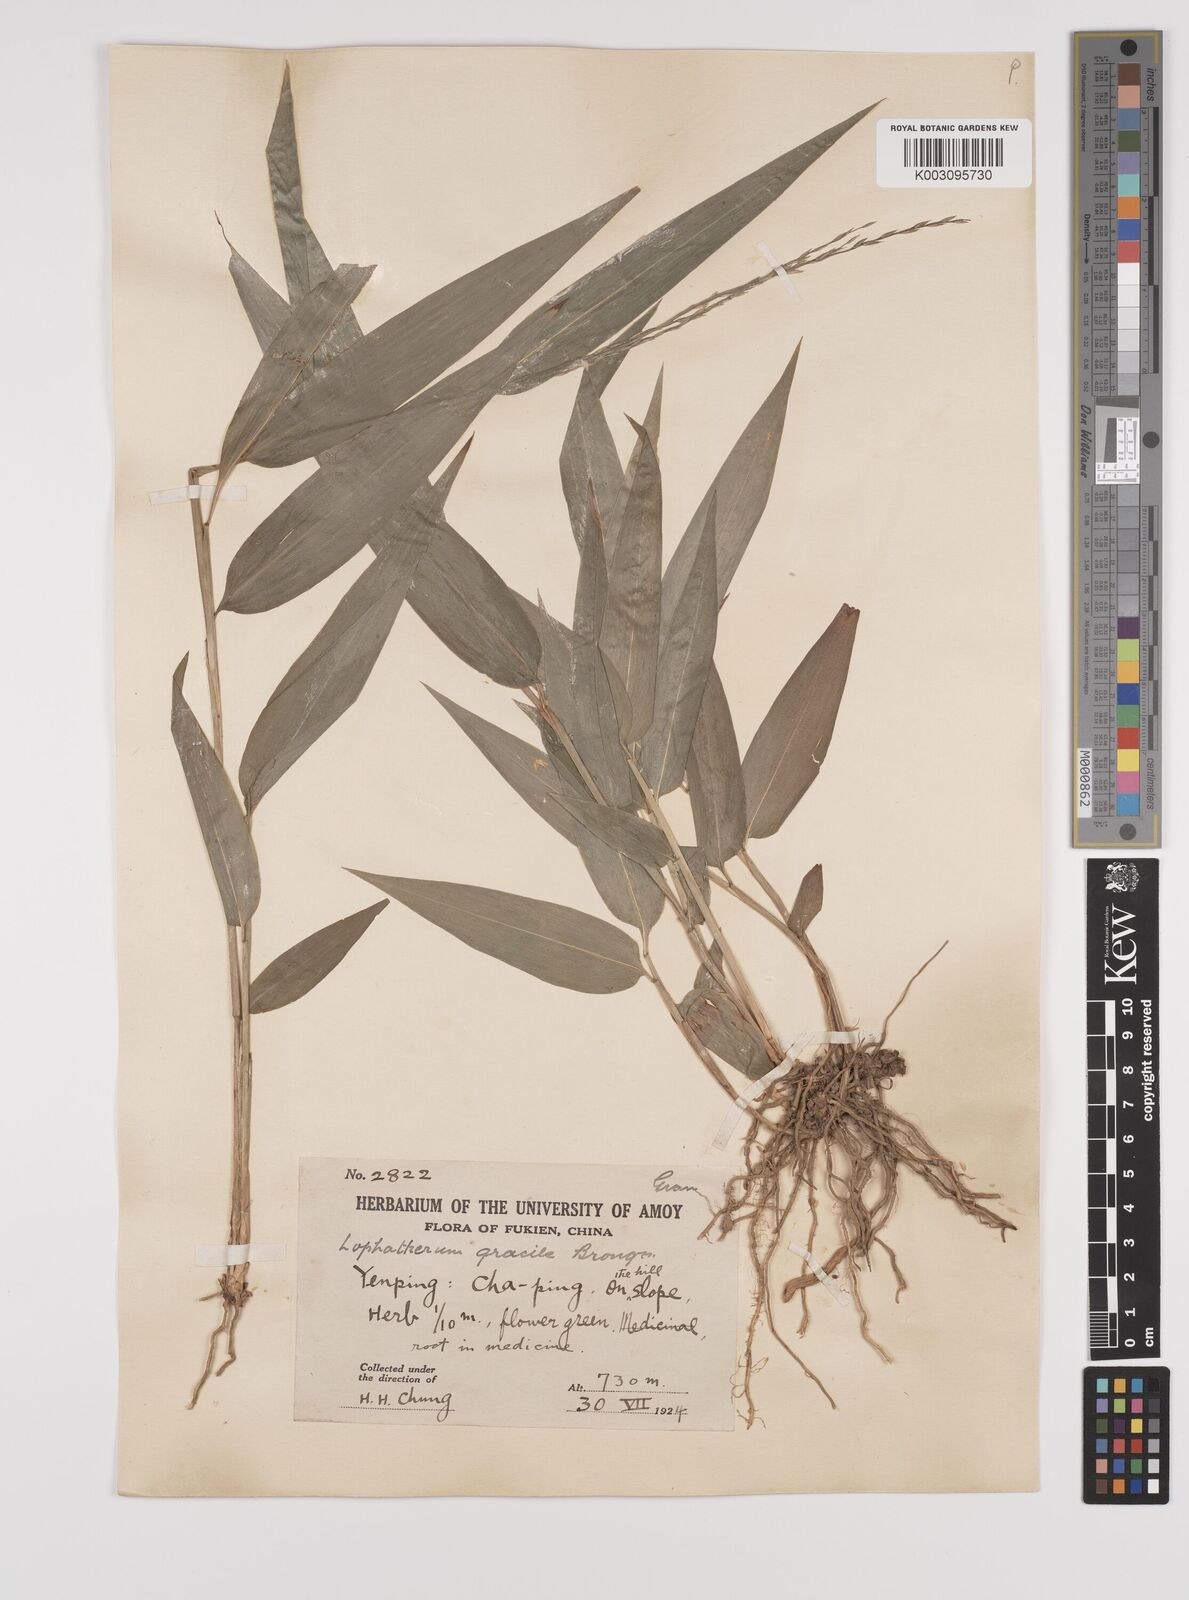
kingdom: Plantae
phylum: Tracheophyta
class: Liliopsida
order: Poales
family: Poaceae
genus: Lophatherum
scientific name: Lophatherum gracile
